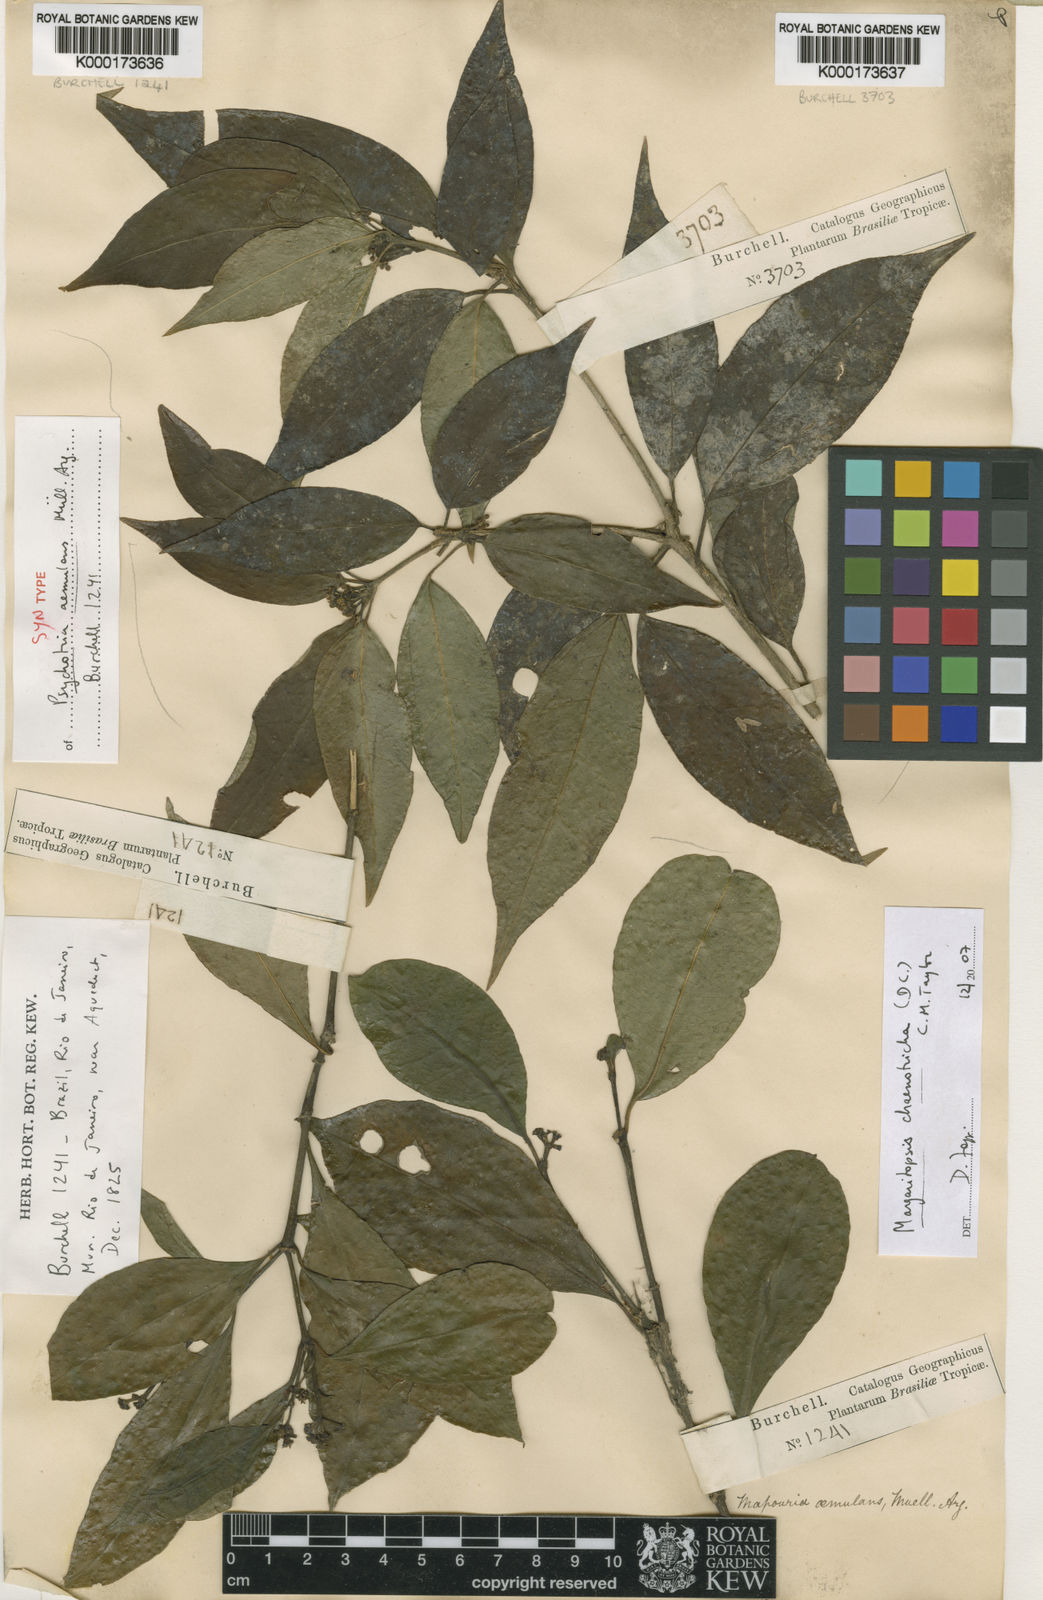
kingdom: Plantae
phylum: Tracheophyta
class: Magnoliopsida
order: Gentianales
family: Rubiaceae
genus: Eumachia
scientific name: Eumachia chaenotricha
